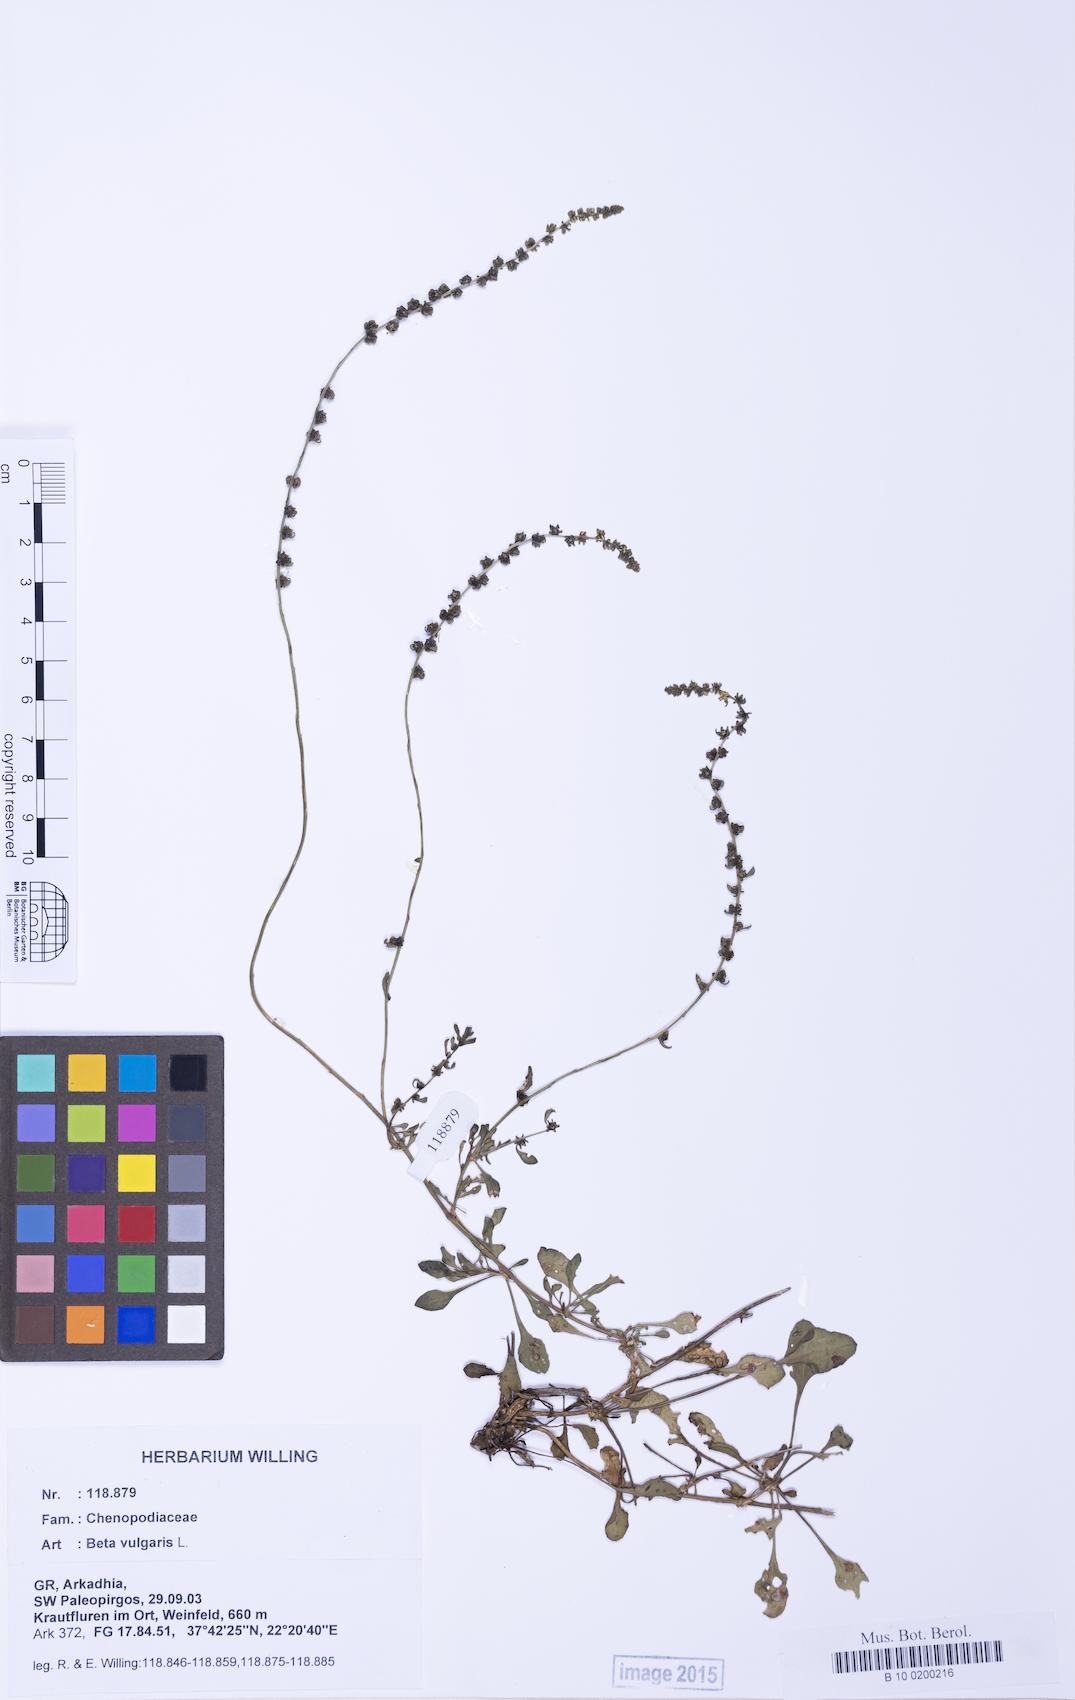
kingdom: Plantae
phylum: Tracheophyta
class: Magnoliopsida
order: Caryophyllales
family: Amaranthaceae
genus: Beta
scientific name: Beta maritima
